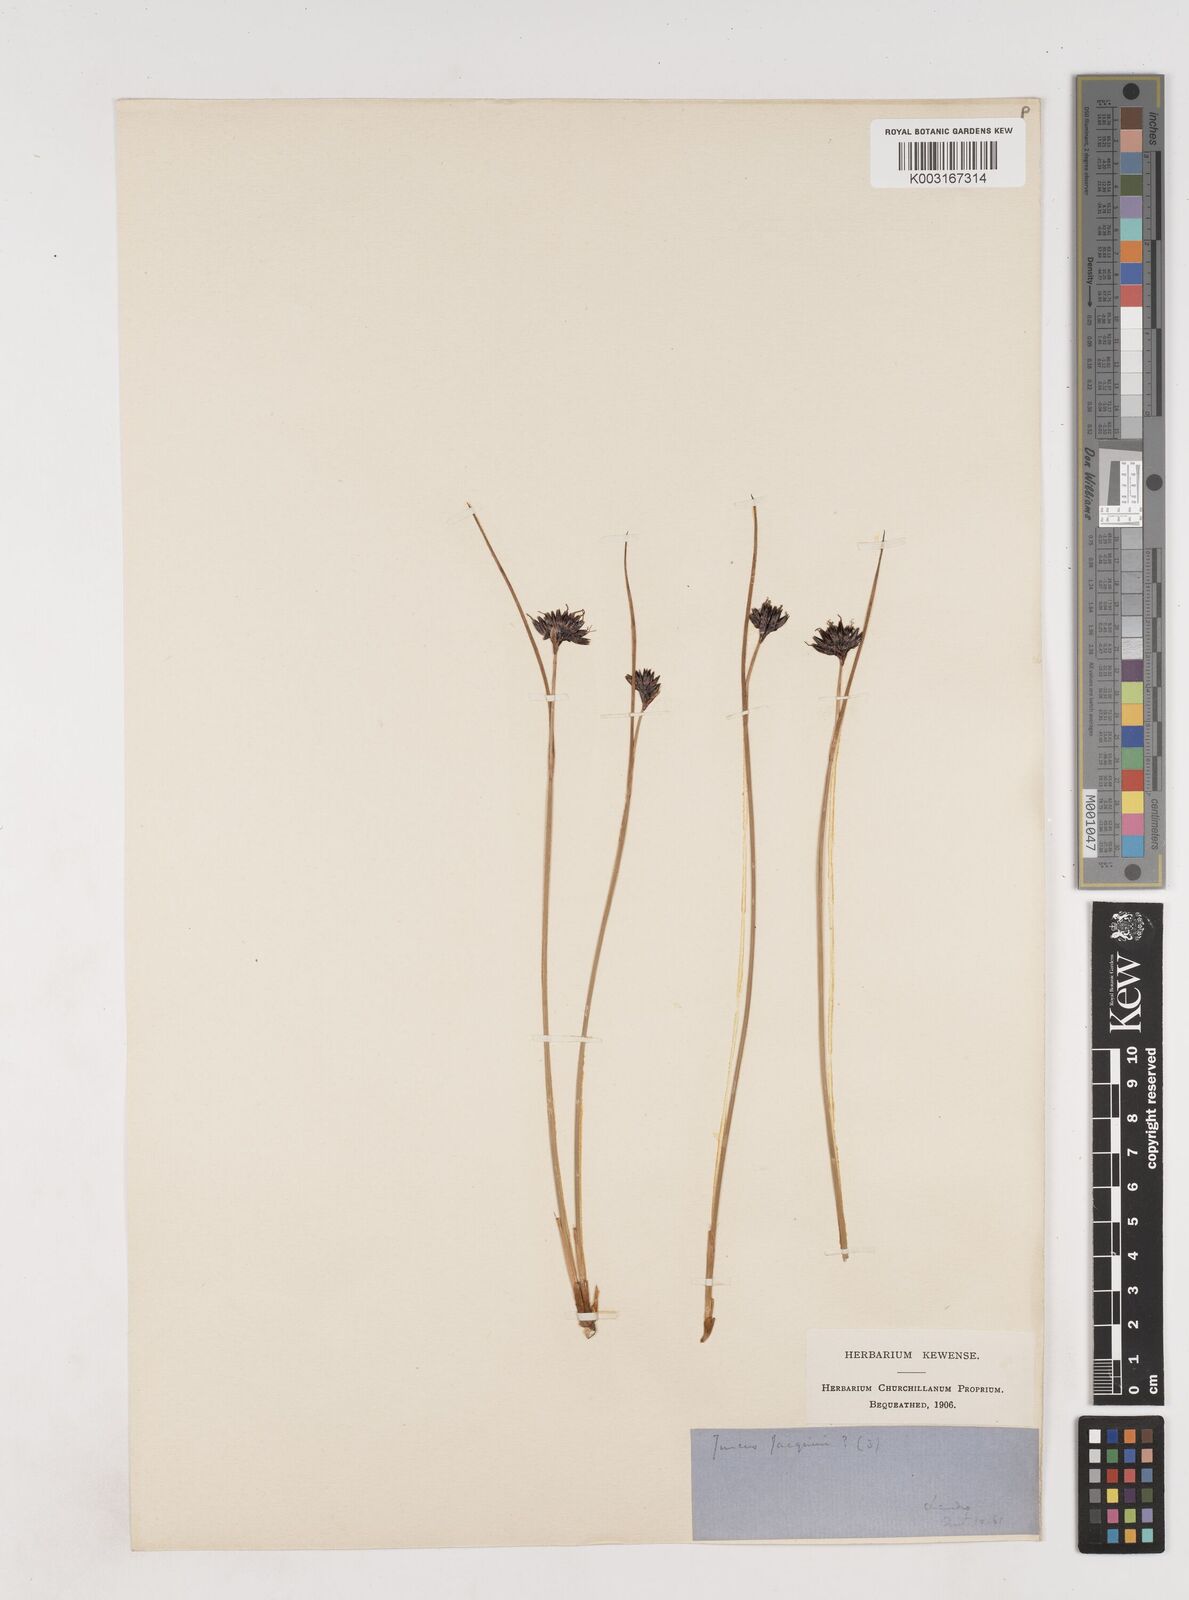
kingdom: Plantae
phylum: Tracheophyta
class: Liliopsida
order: Poales
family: Juncaceae
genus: Juncus
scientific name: Juncus jacquinii
